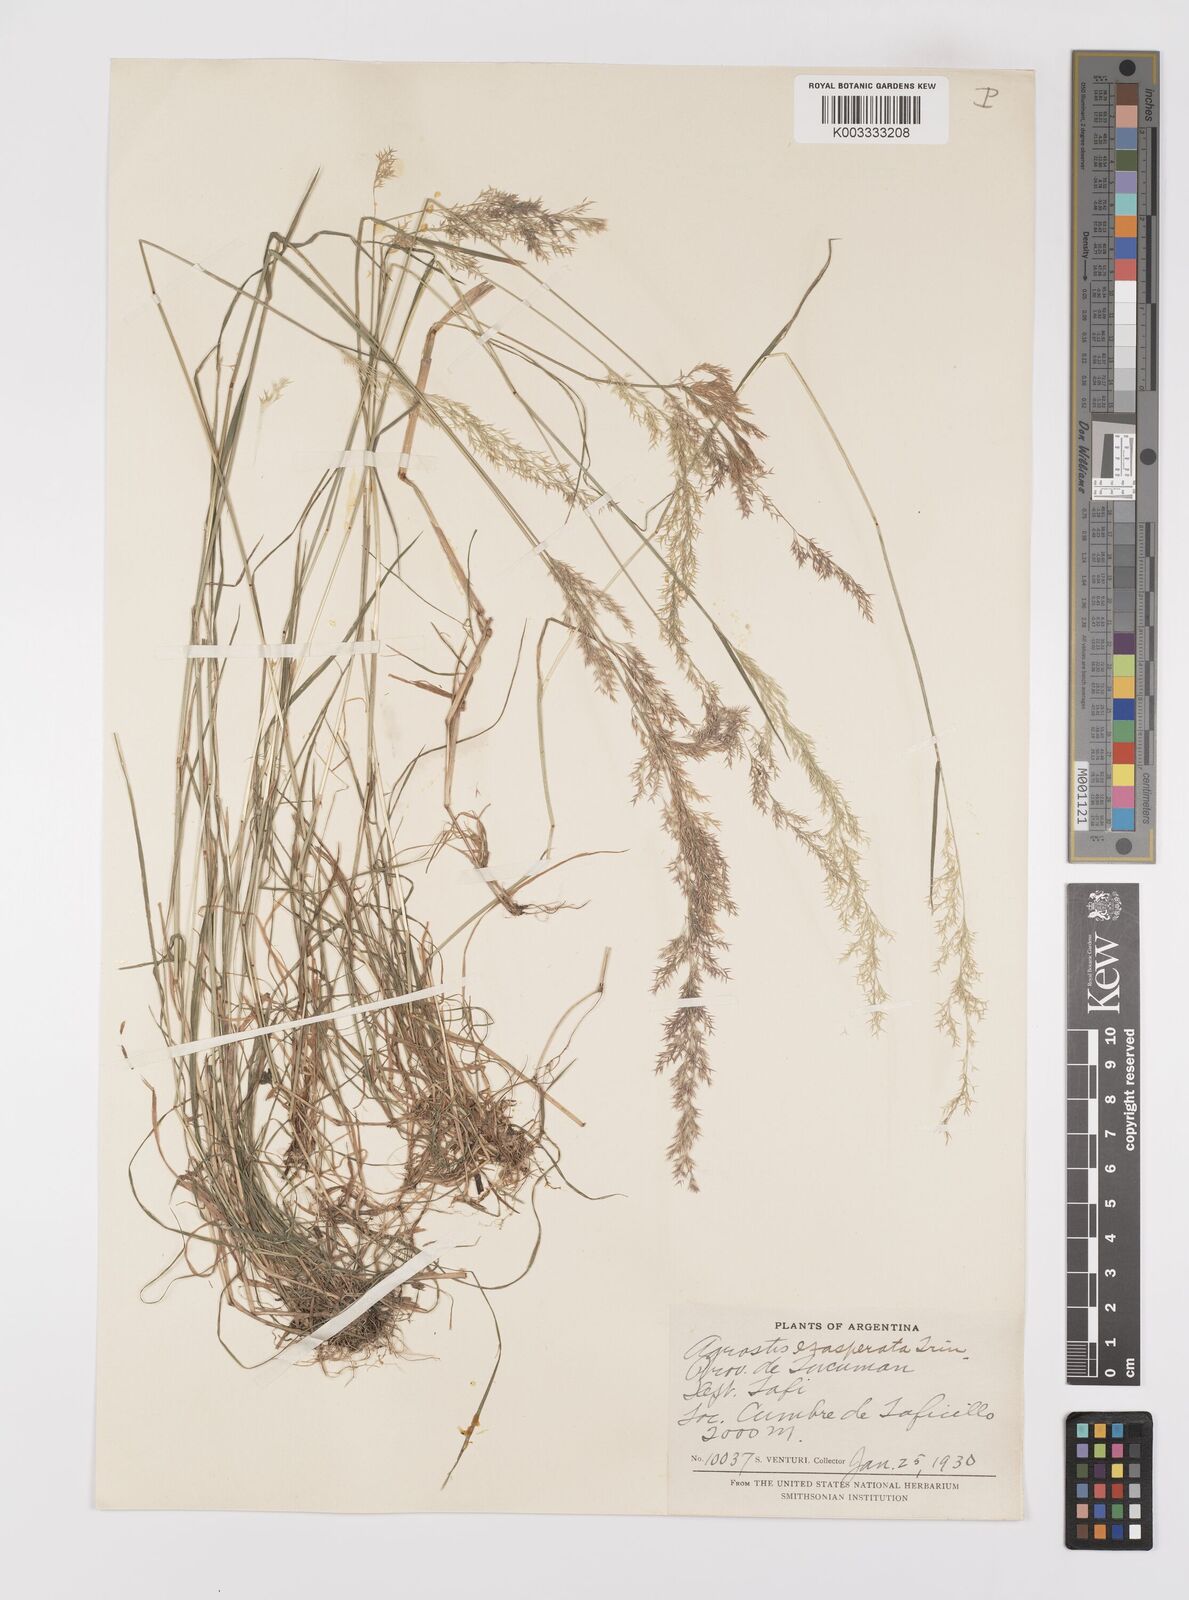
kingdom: Plantae
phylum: Tracheophyta
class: Liliopsida
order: Poales
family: Poaceae
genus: Polypogon
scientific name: Polypogon exasperatus
